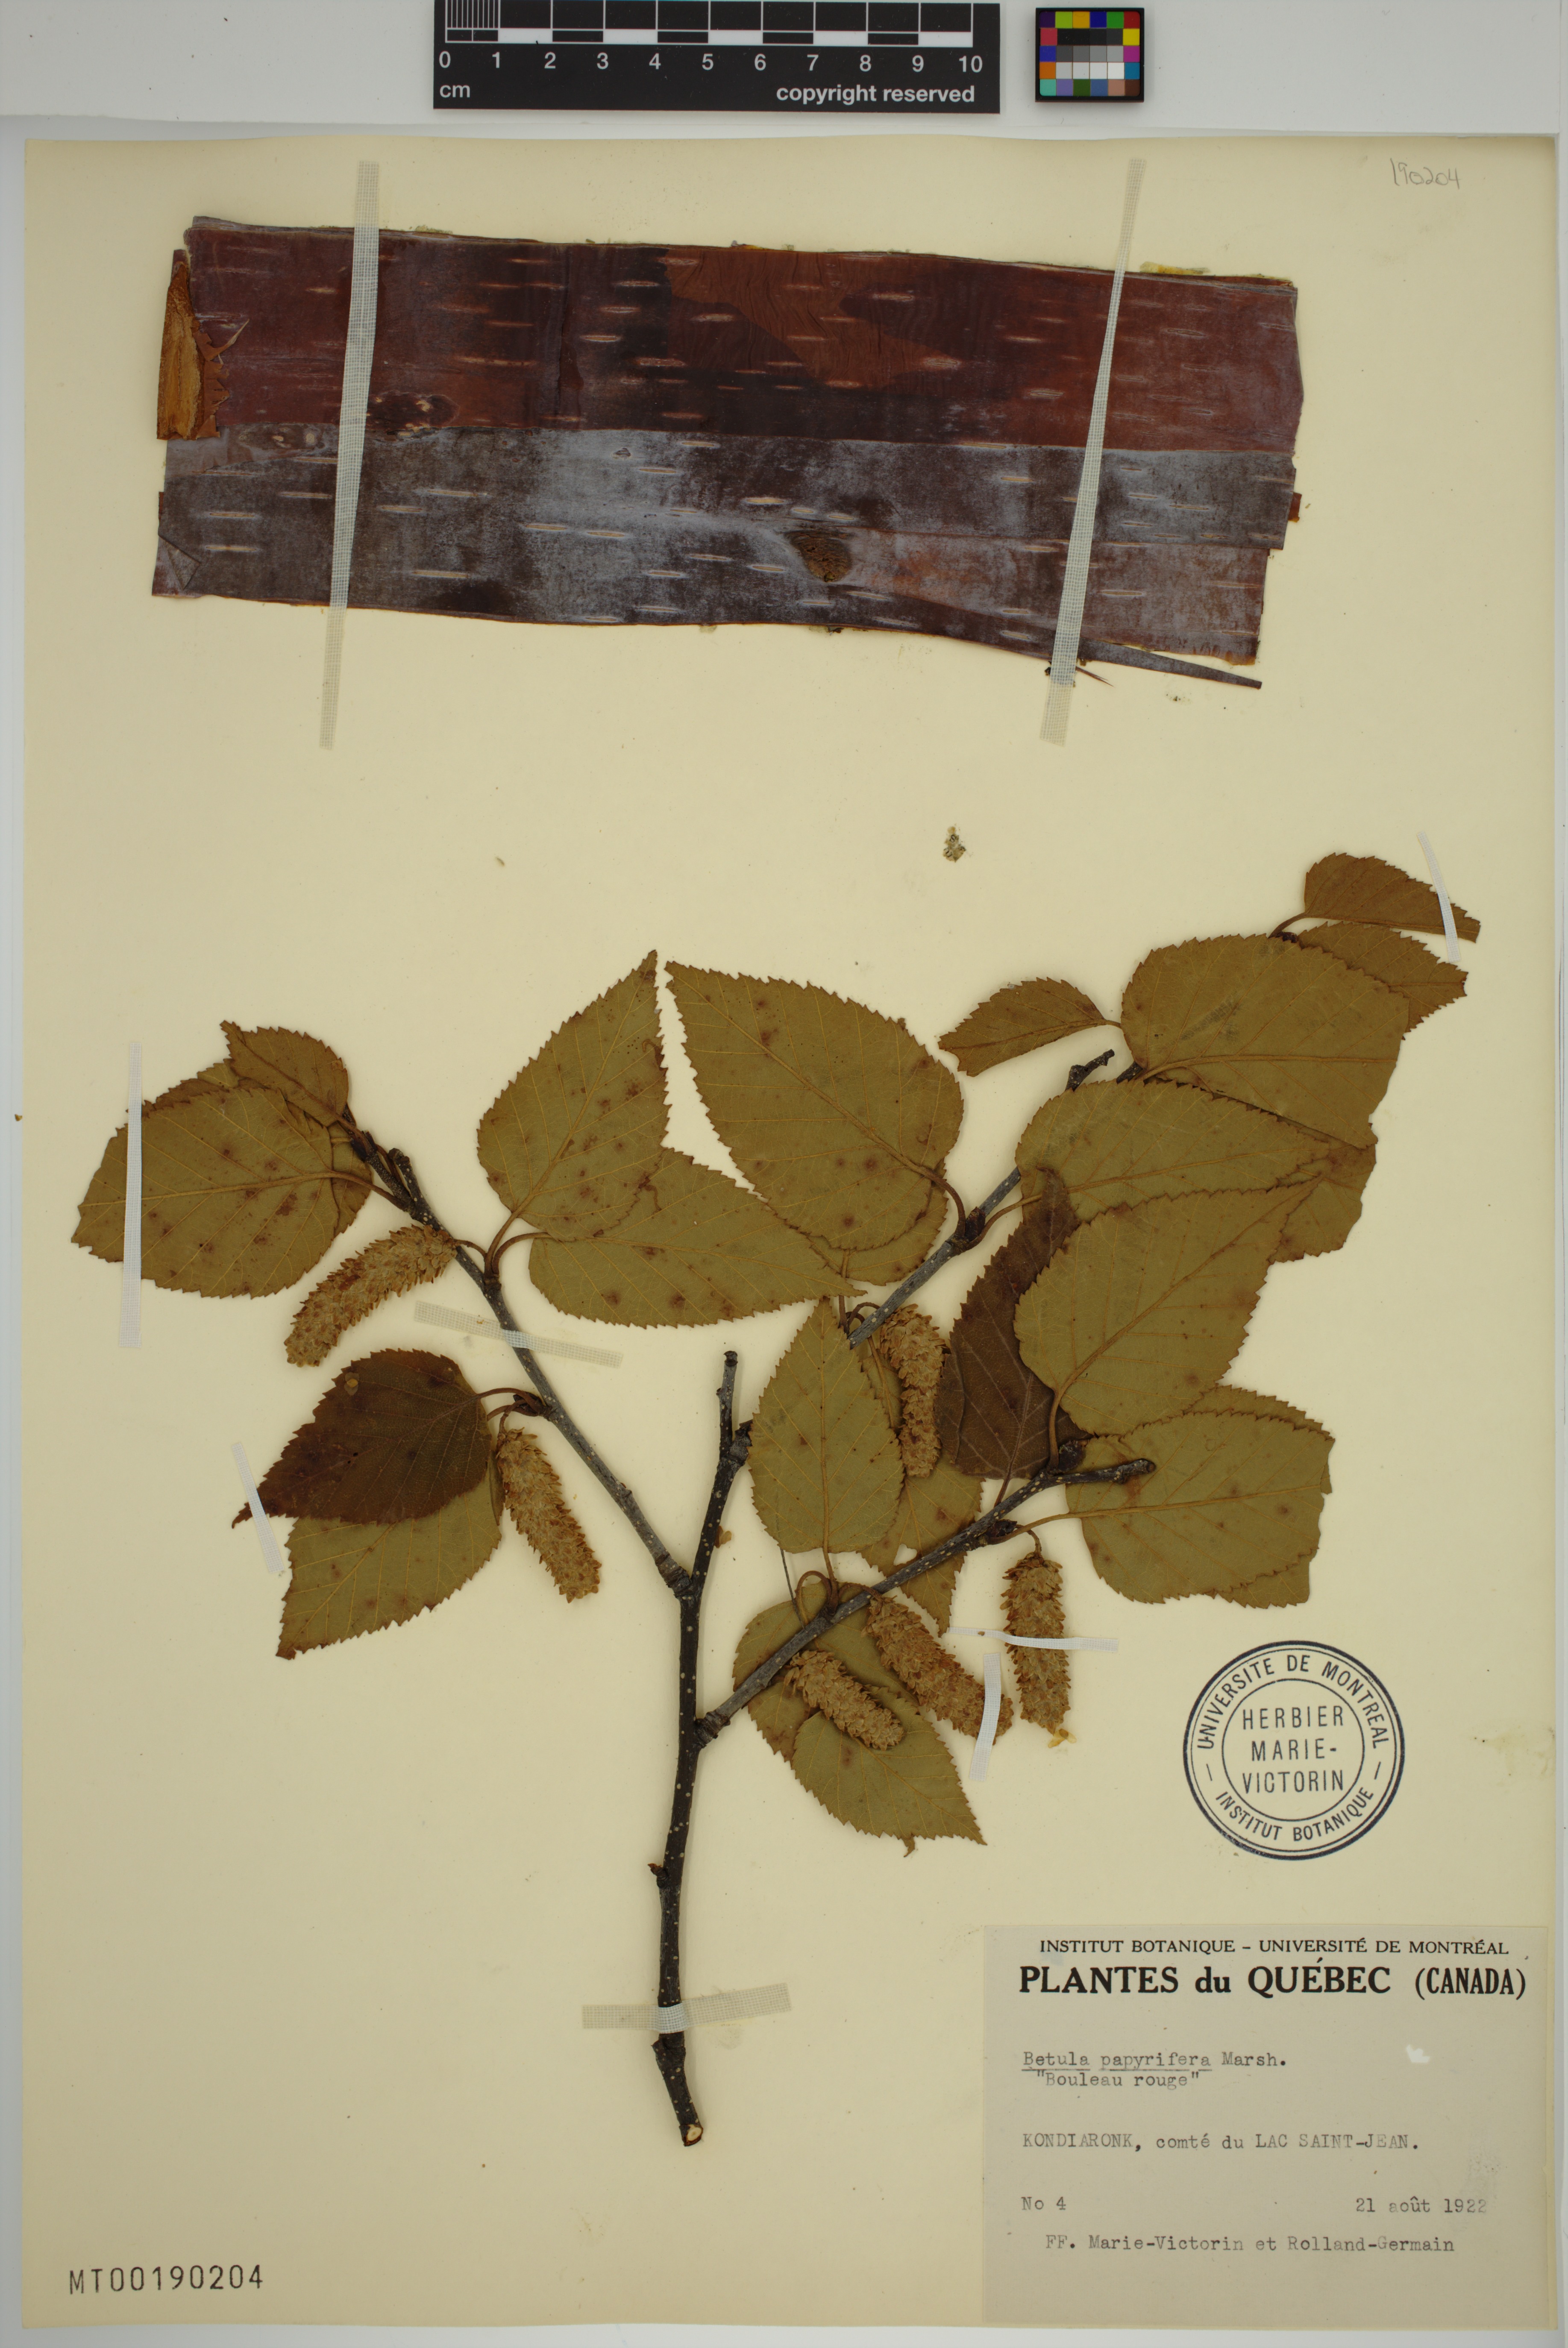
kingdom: Plantae
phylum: Tracheophyta
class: Magnoliopsida
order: Fagales
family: Betulaceae
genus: Betula
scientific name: Betula papyrifera
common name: Paper birch
